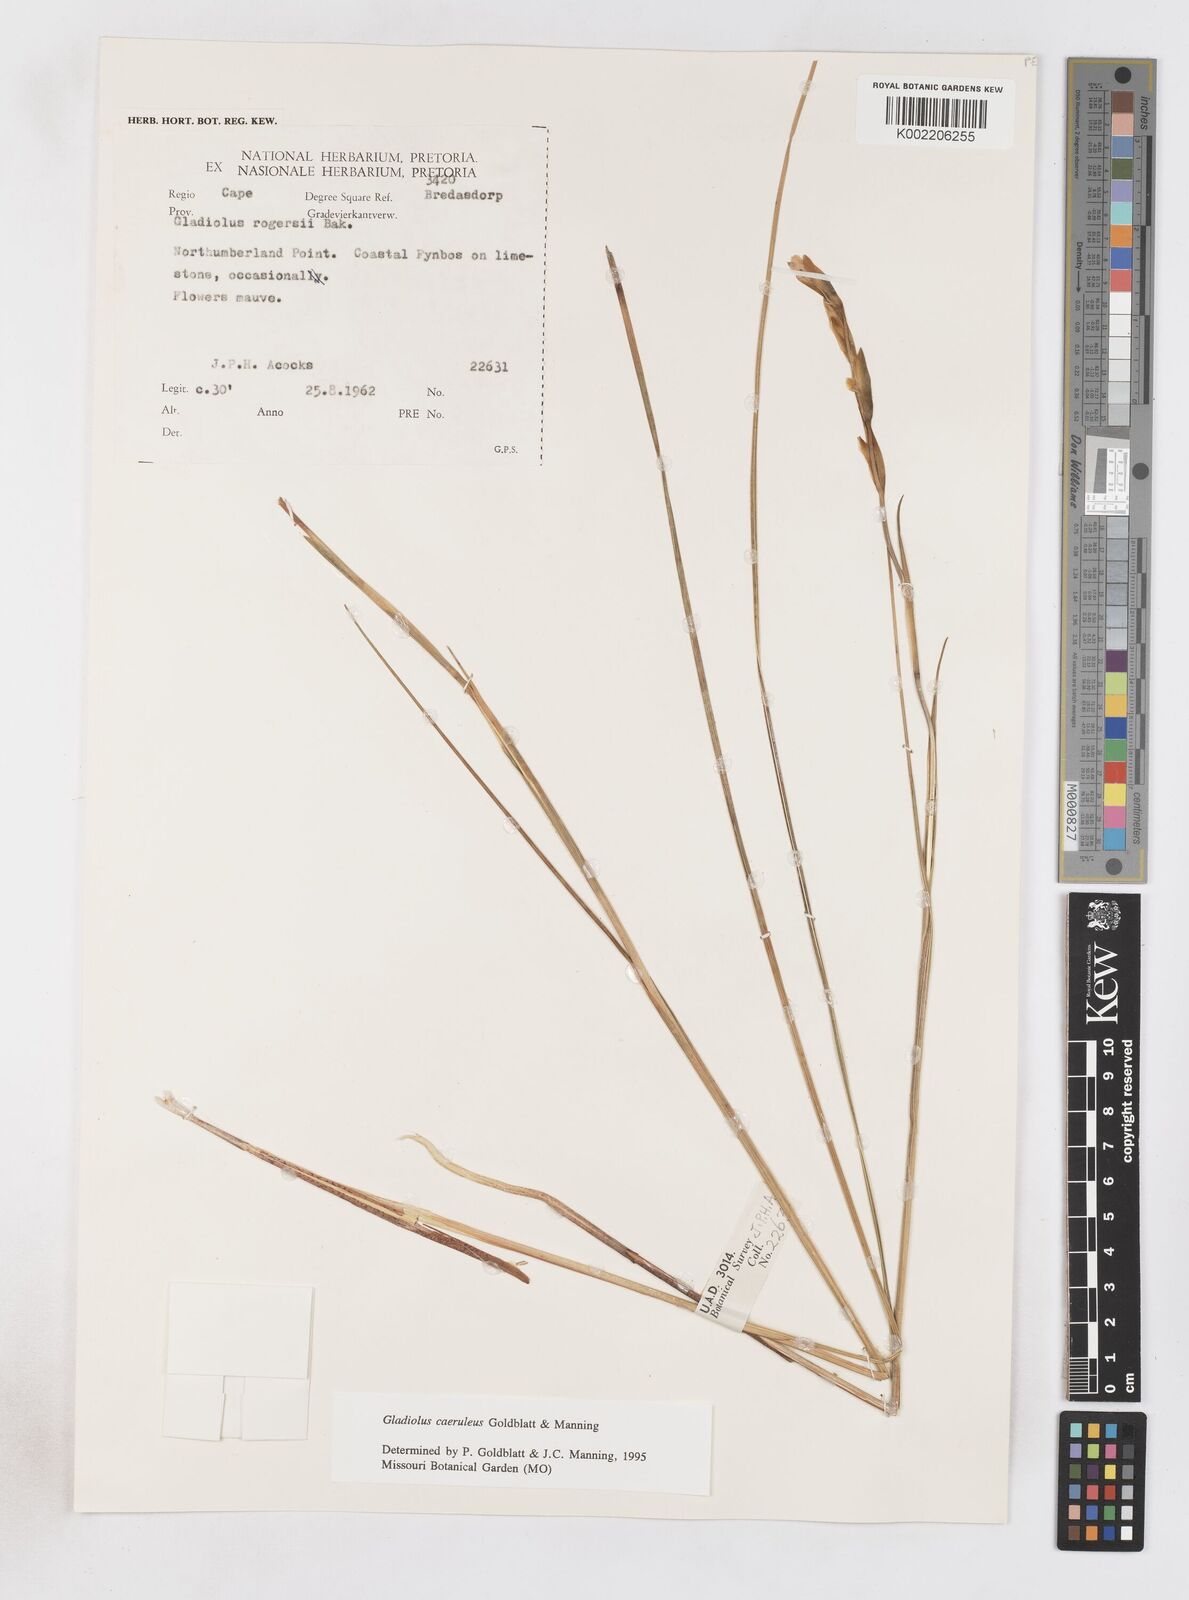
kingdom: Plantae
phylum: Tracheophyta
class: Liliopsida
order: Asparagales
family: Iridaceae
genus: Gladiolus
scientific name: Gladiolus caeruleus
